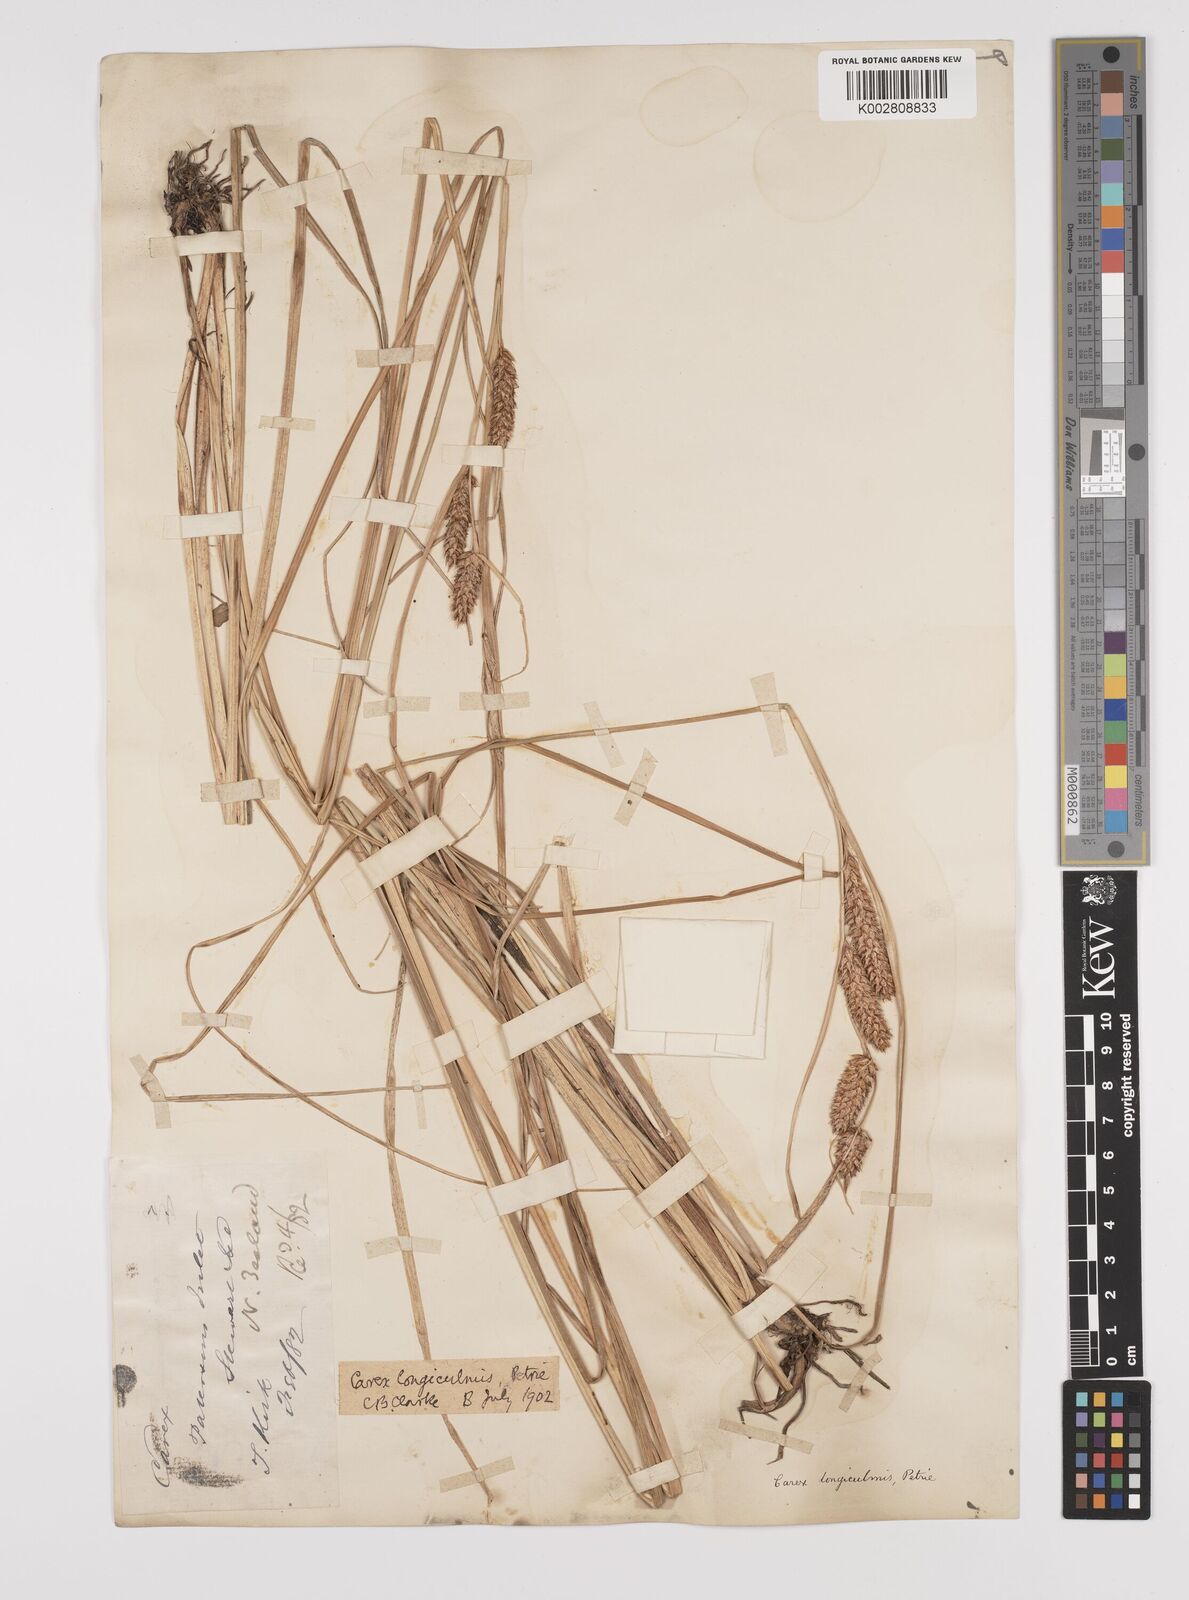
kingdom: Plantae
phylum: Tracheophyta
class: Liliopsida
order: Poales
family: Cyperaceae
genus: Carex
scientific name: Carex longiculmis
